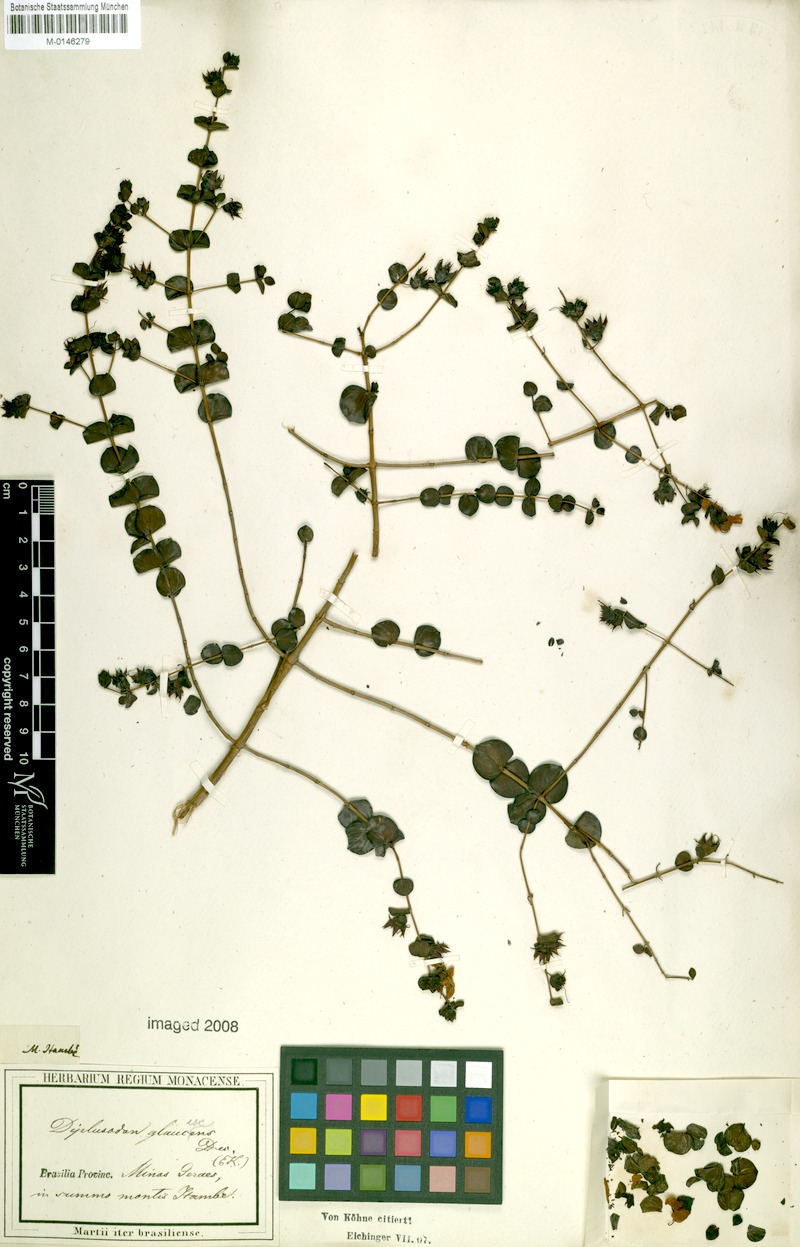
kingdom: Plantae
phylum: Tracheophyta
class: Magnoliopsida
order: Myrtales
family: Lythraceae
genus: Diplusodon
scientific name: Diplusodon glaucescens
